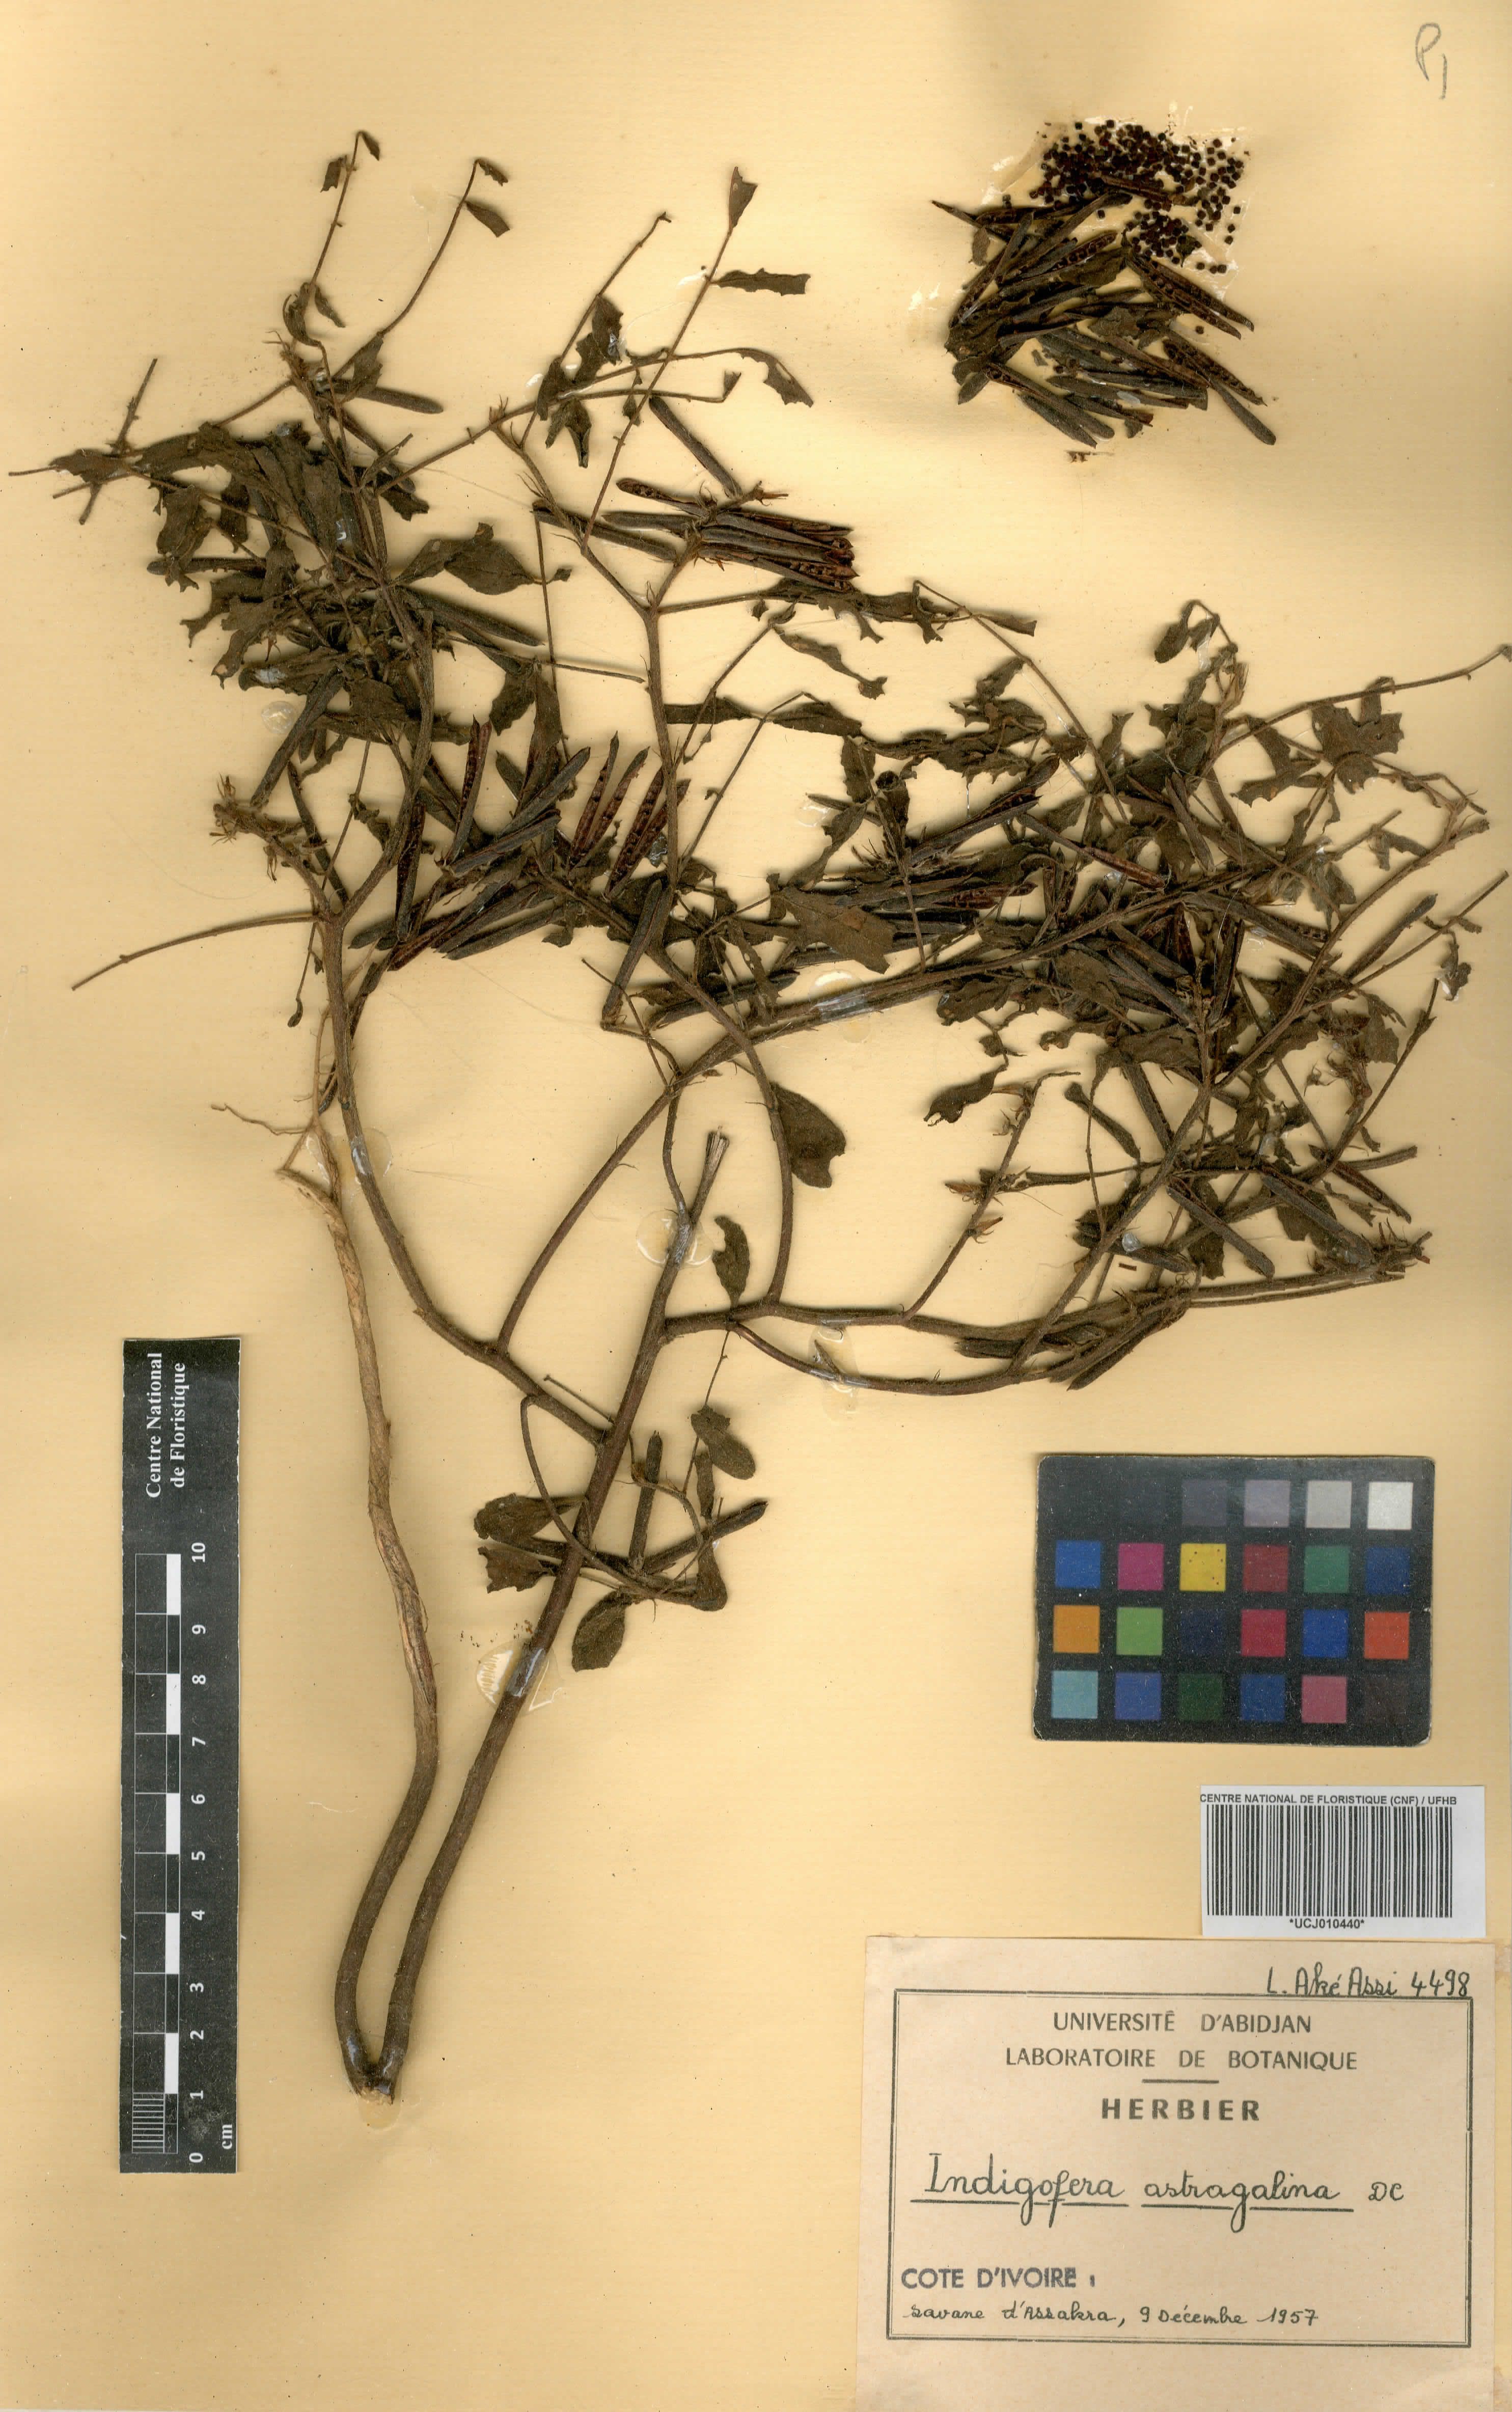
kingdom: Plantae
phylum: Tracheophyta
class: Magnoliopsida
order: Fabales
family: Fabaceae
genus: Indigofera
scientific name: Indigofera astragalina
